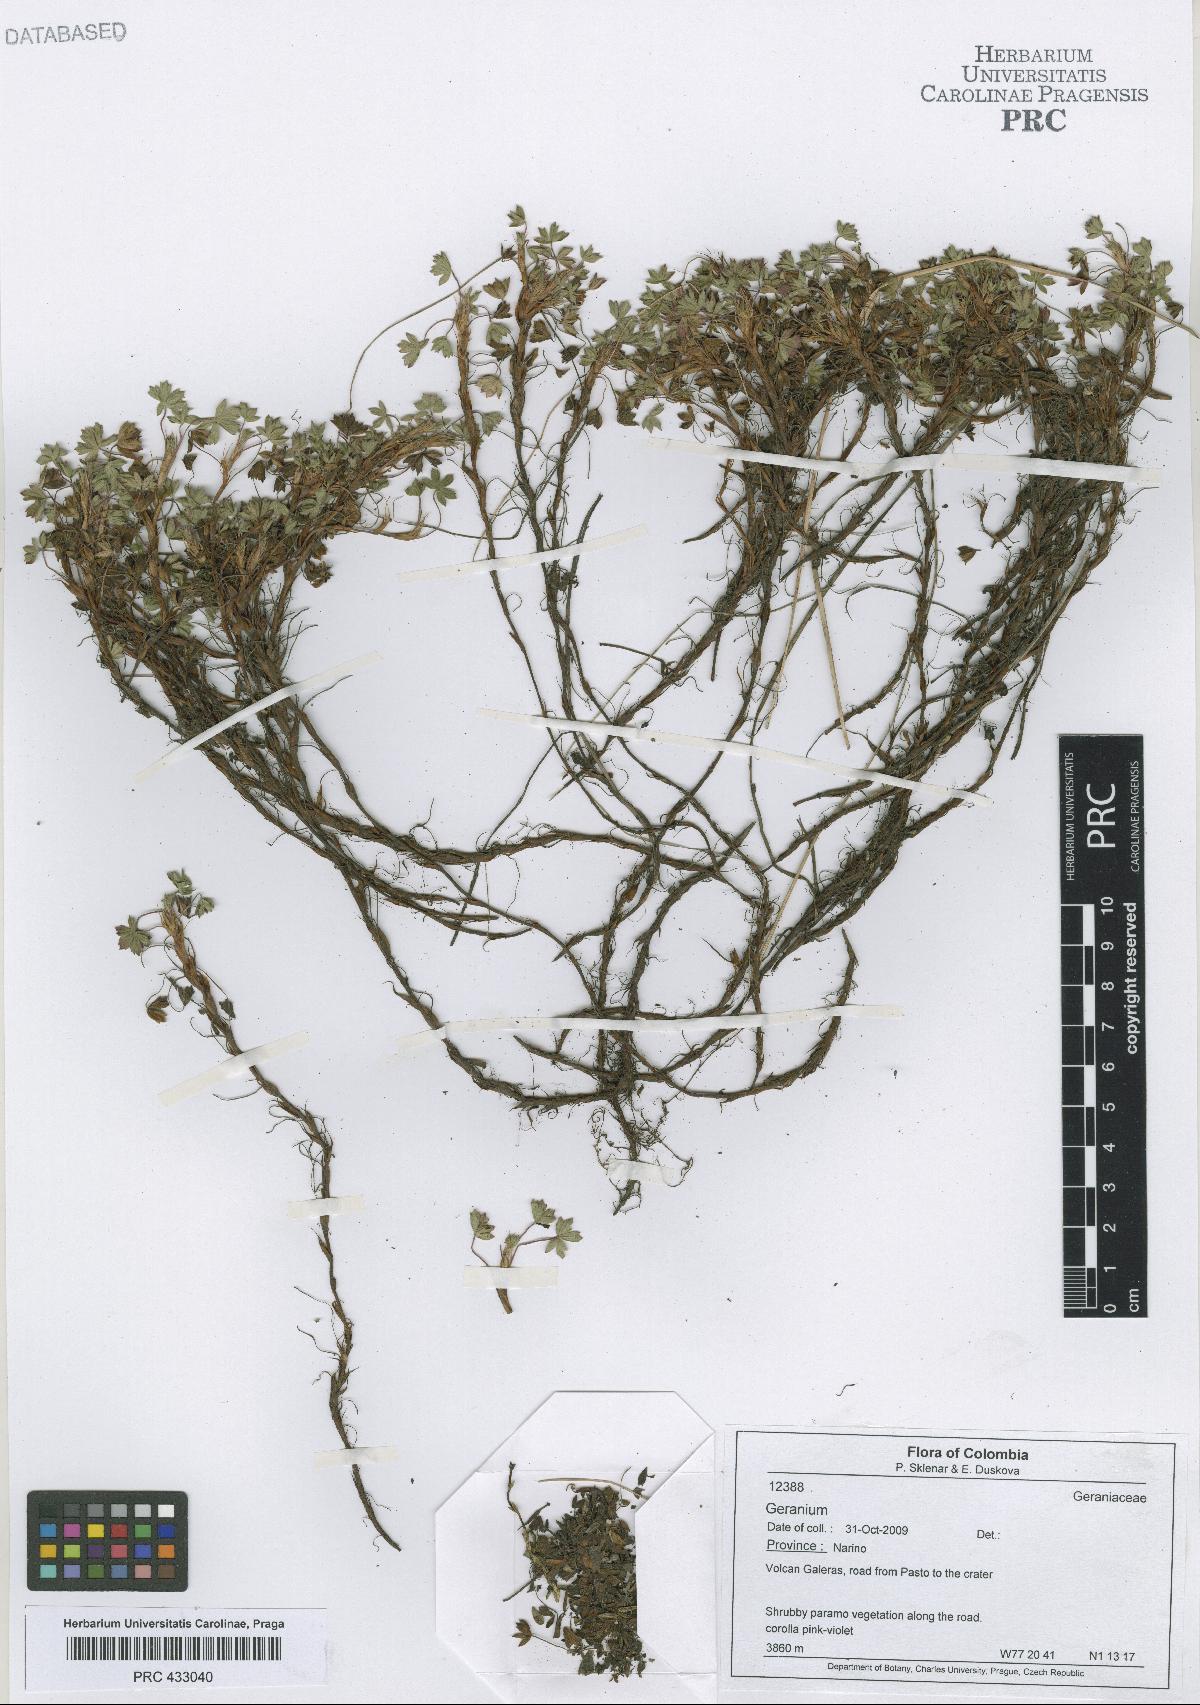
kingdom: Plantae
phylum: Tracheophyta
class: Magnoliopsida
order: Geraniales
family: Geraniaceae
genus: Geranium
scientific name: Geranium sibbaldioides
